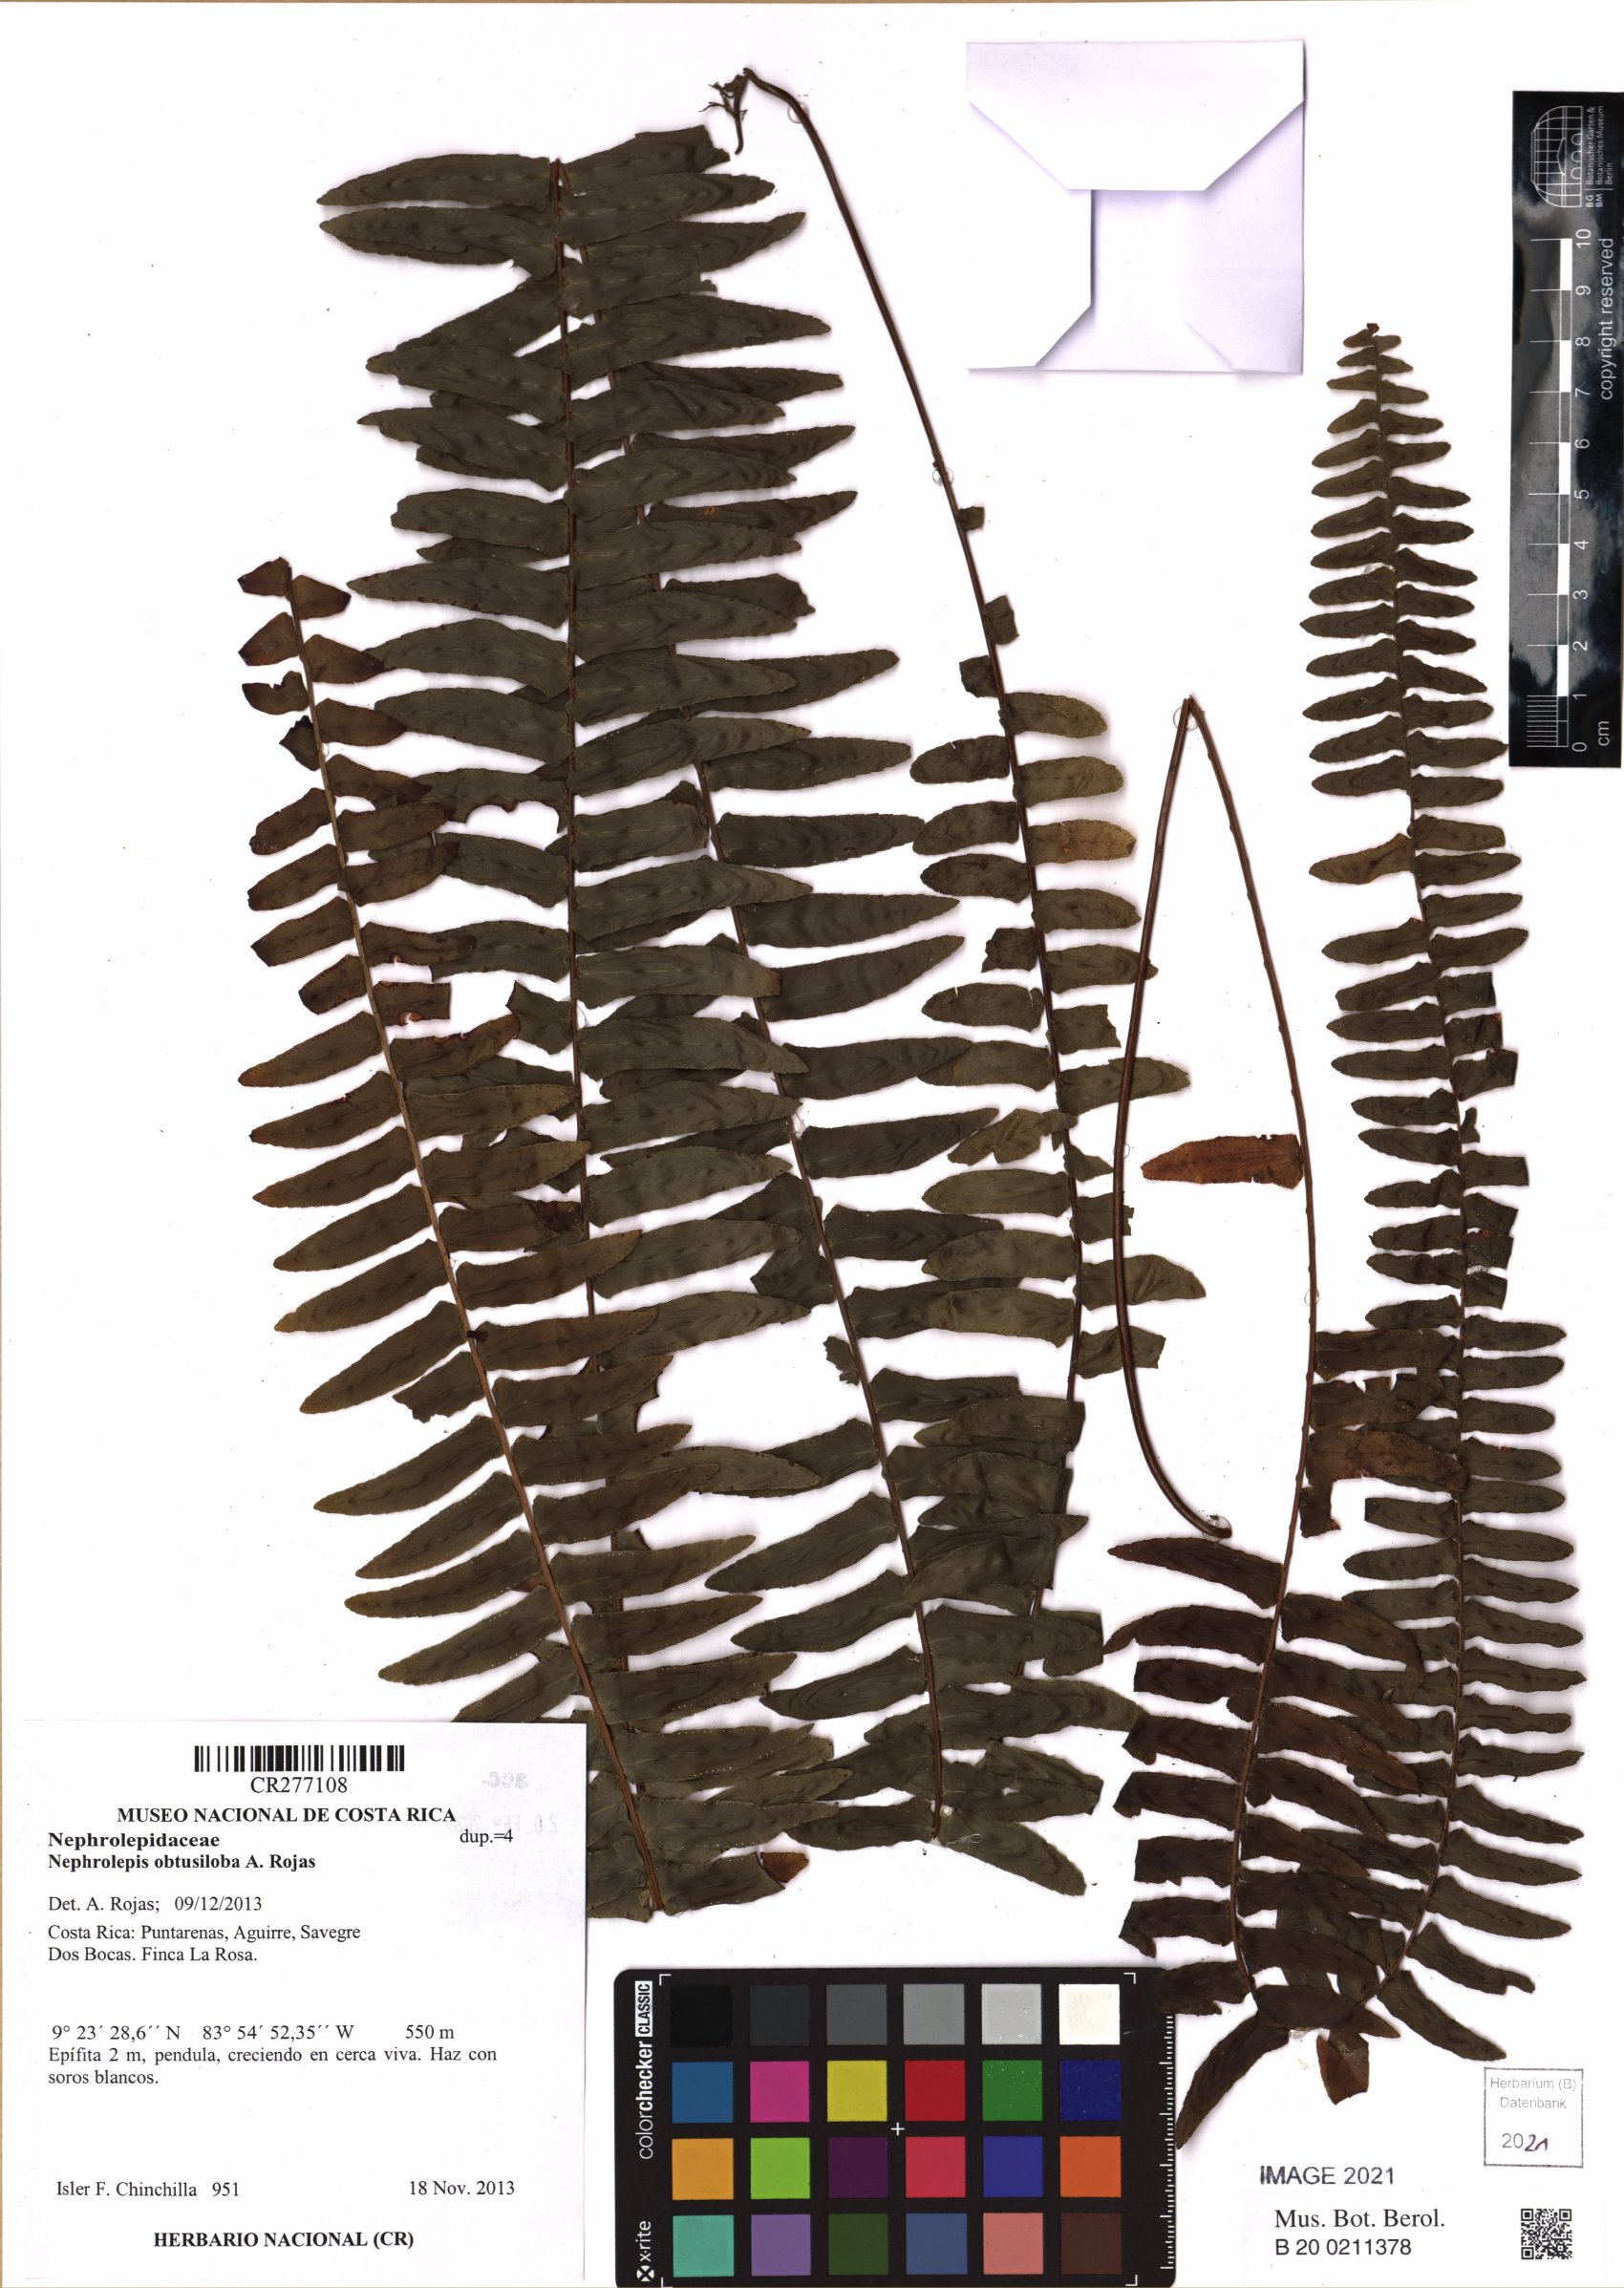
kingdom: Plantae
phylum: Tracheophyta
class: Polypodiopsida
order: Polypodiales
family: Nephrolepidaceae
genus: Nephrolepis
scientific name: Nephrolepis
